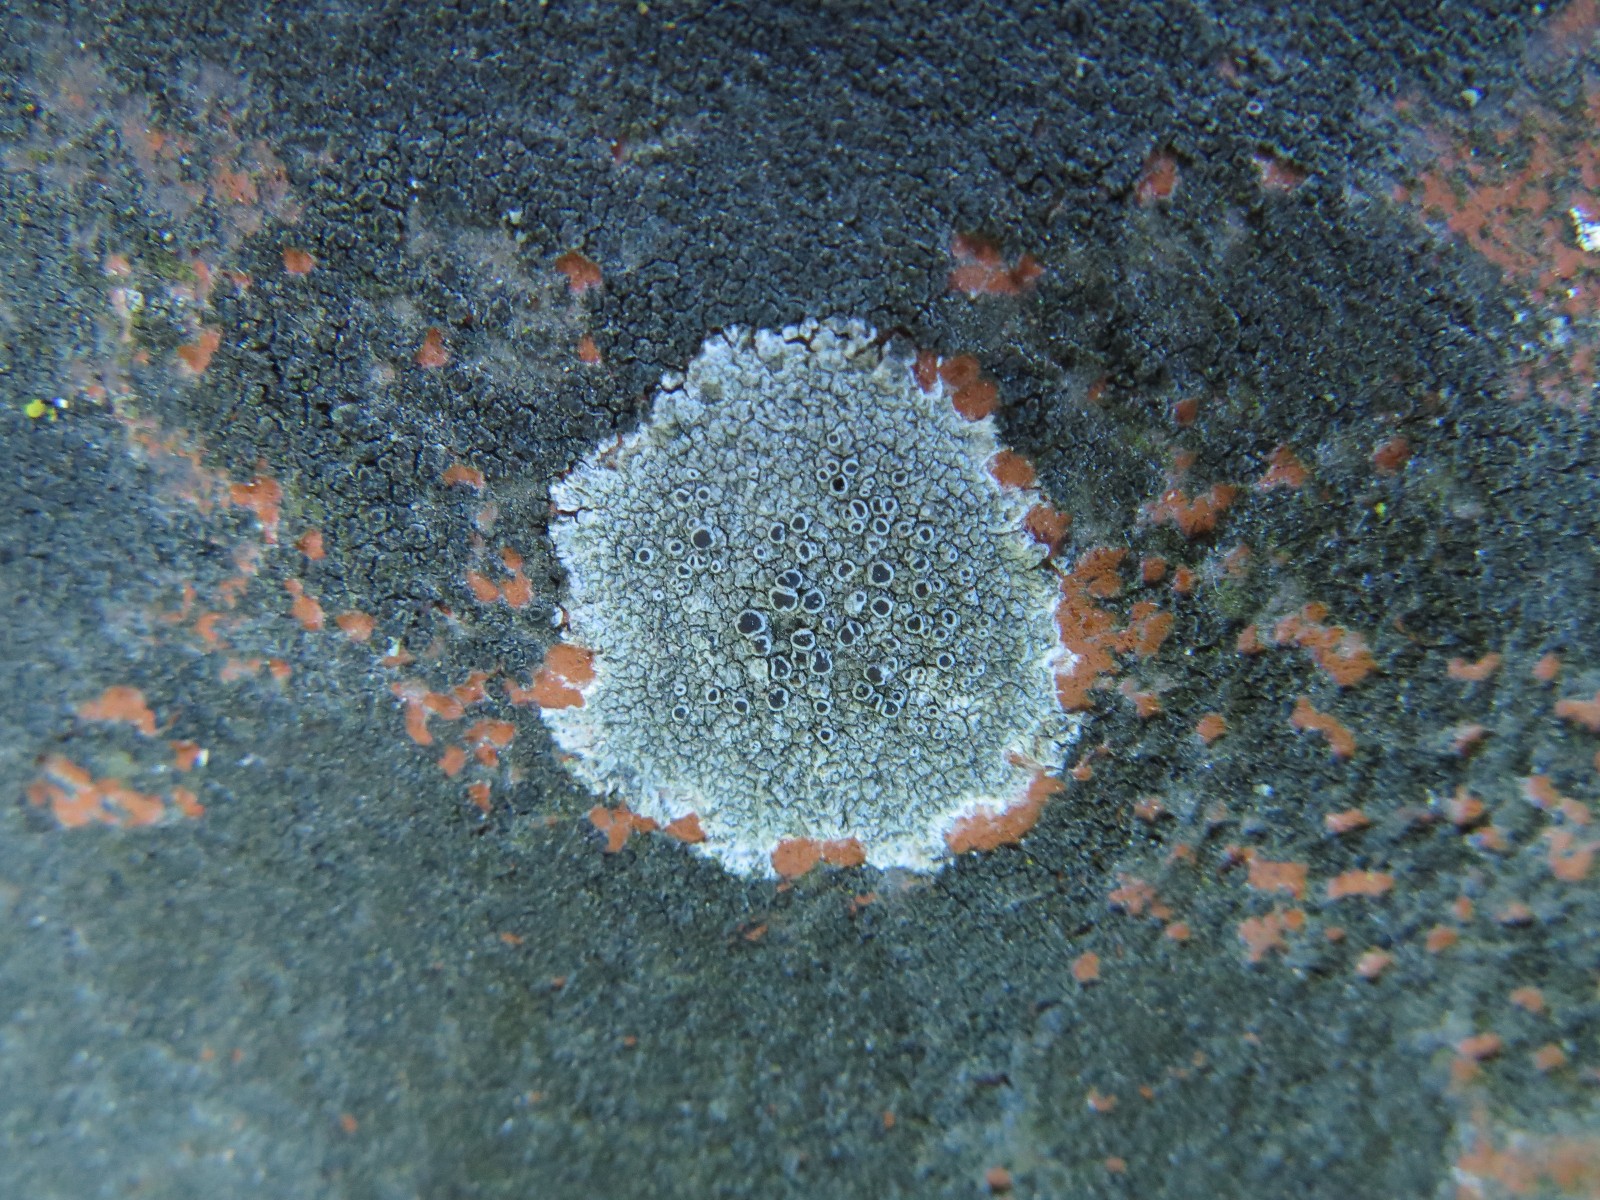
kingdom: Fungi
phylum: Ascomycota
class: Lecanoromycetes
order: Lecanorales
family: Lecanoraceae
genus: Lecanora
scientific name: Lecanora campestris
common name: mur-kantskivelav
